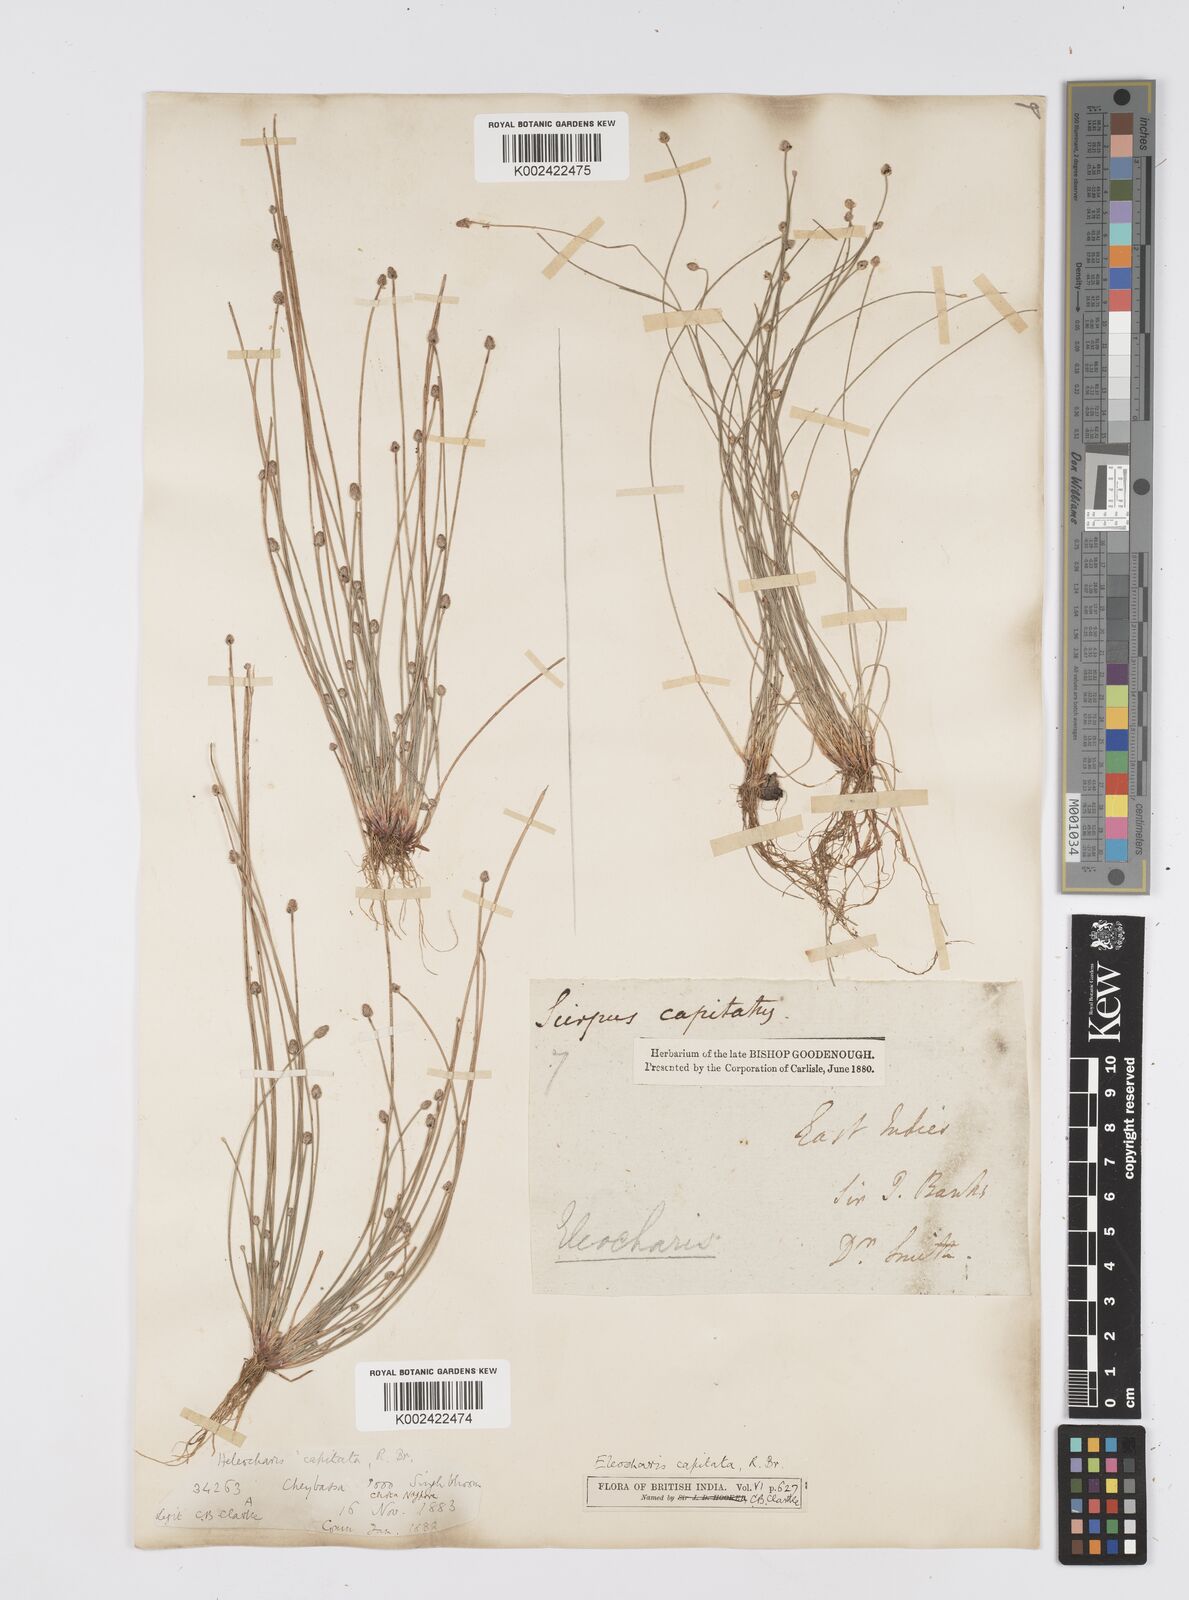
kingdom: Plantae
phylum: Tracheophyta
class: Liliopsida
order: Poales
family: Cyperaceae
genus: Eleocharis
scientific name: Eleocharis geniculata
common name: Canada spikesedge
